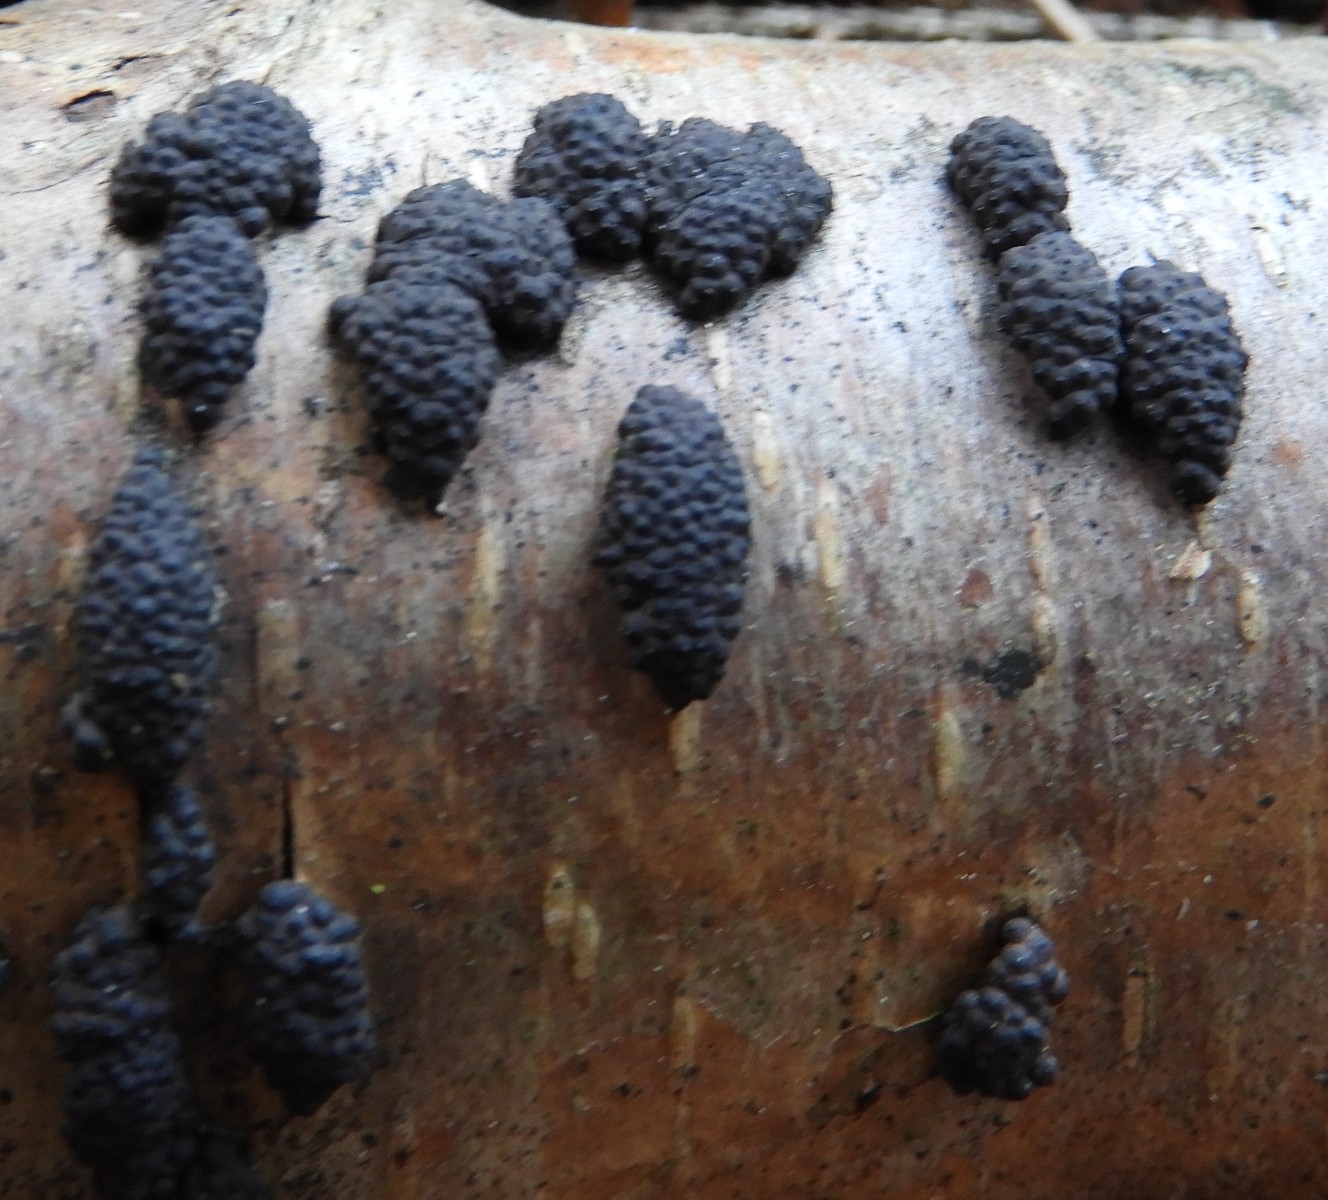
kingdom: Fungi
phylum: Ascomycota
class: Sordariomycetes
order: Xylariales
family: Hypoxylaceae
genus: Jackrogersella
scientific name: Jackrogersella multiformis
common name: foranderlig kulbær
